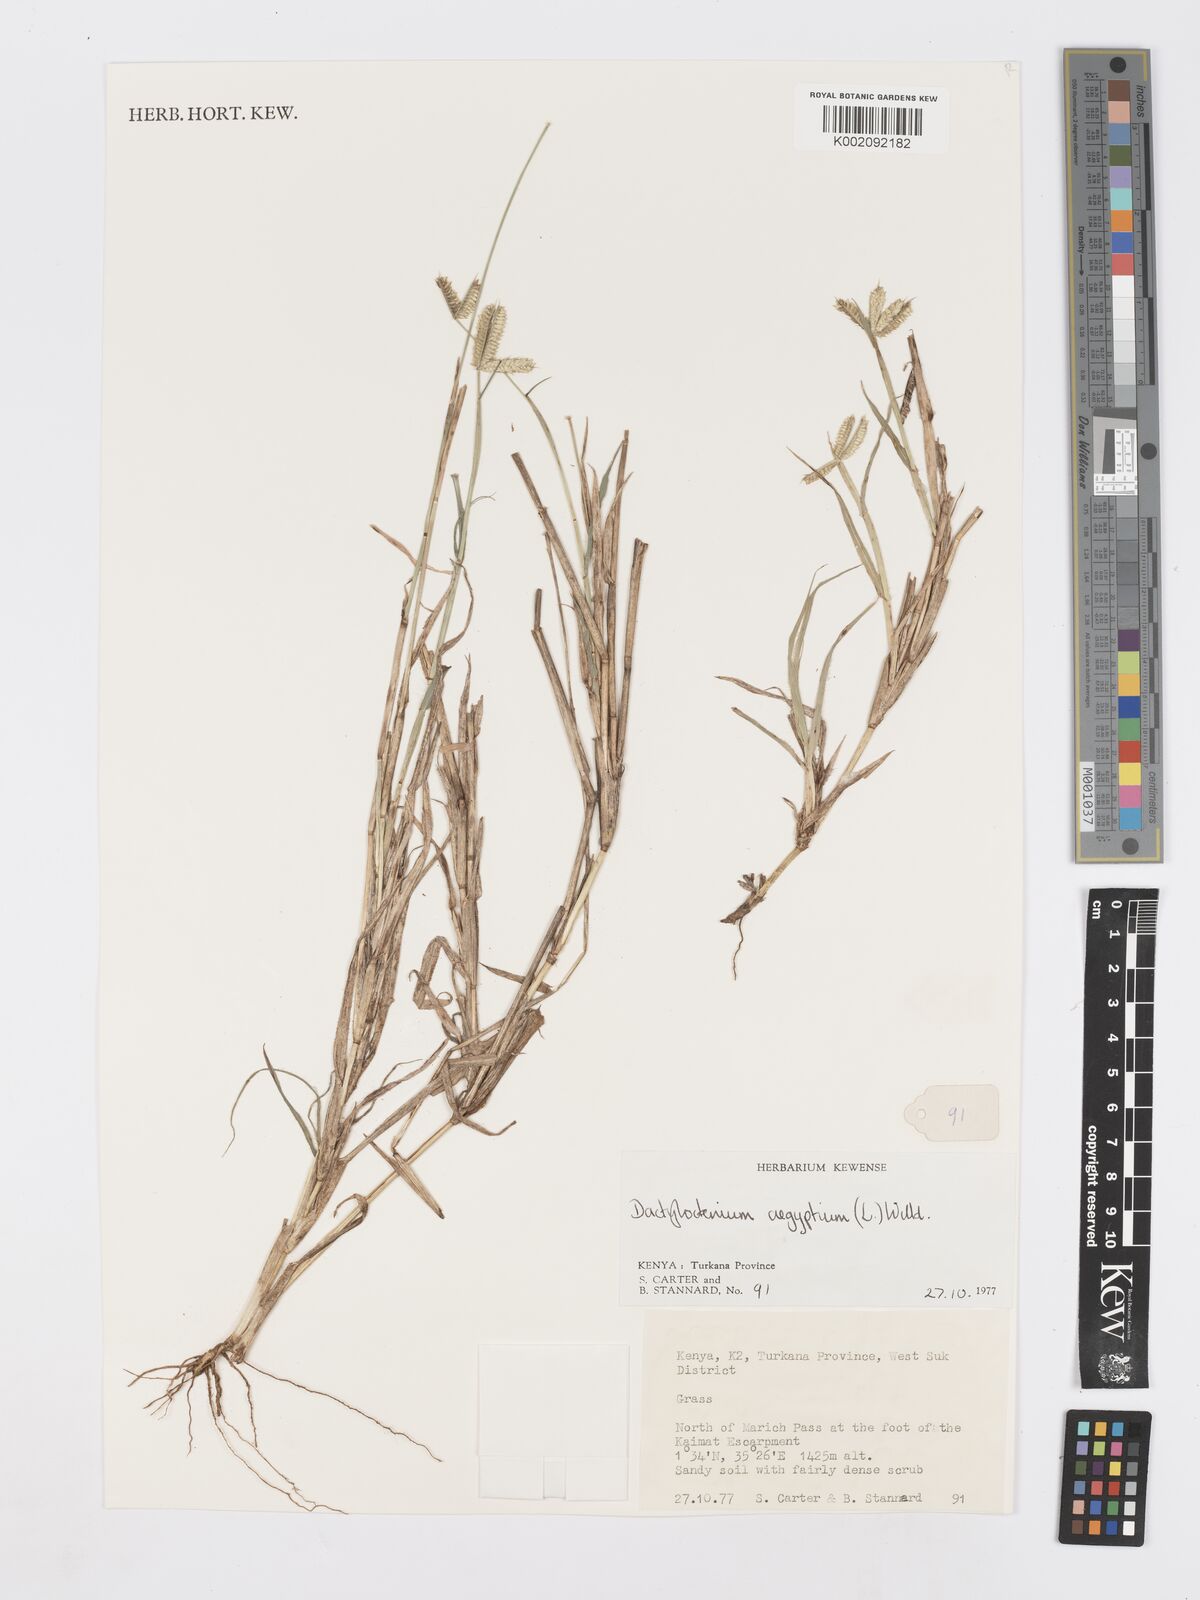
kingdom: Plantae
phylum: Tracheophyta
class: Liliopsida
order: Poales
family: Poaceae
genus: Dactyloctenium
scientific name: Dactyloctenium aegyptium
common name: Egyptian grass
